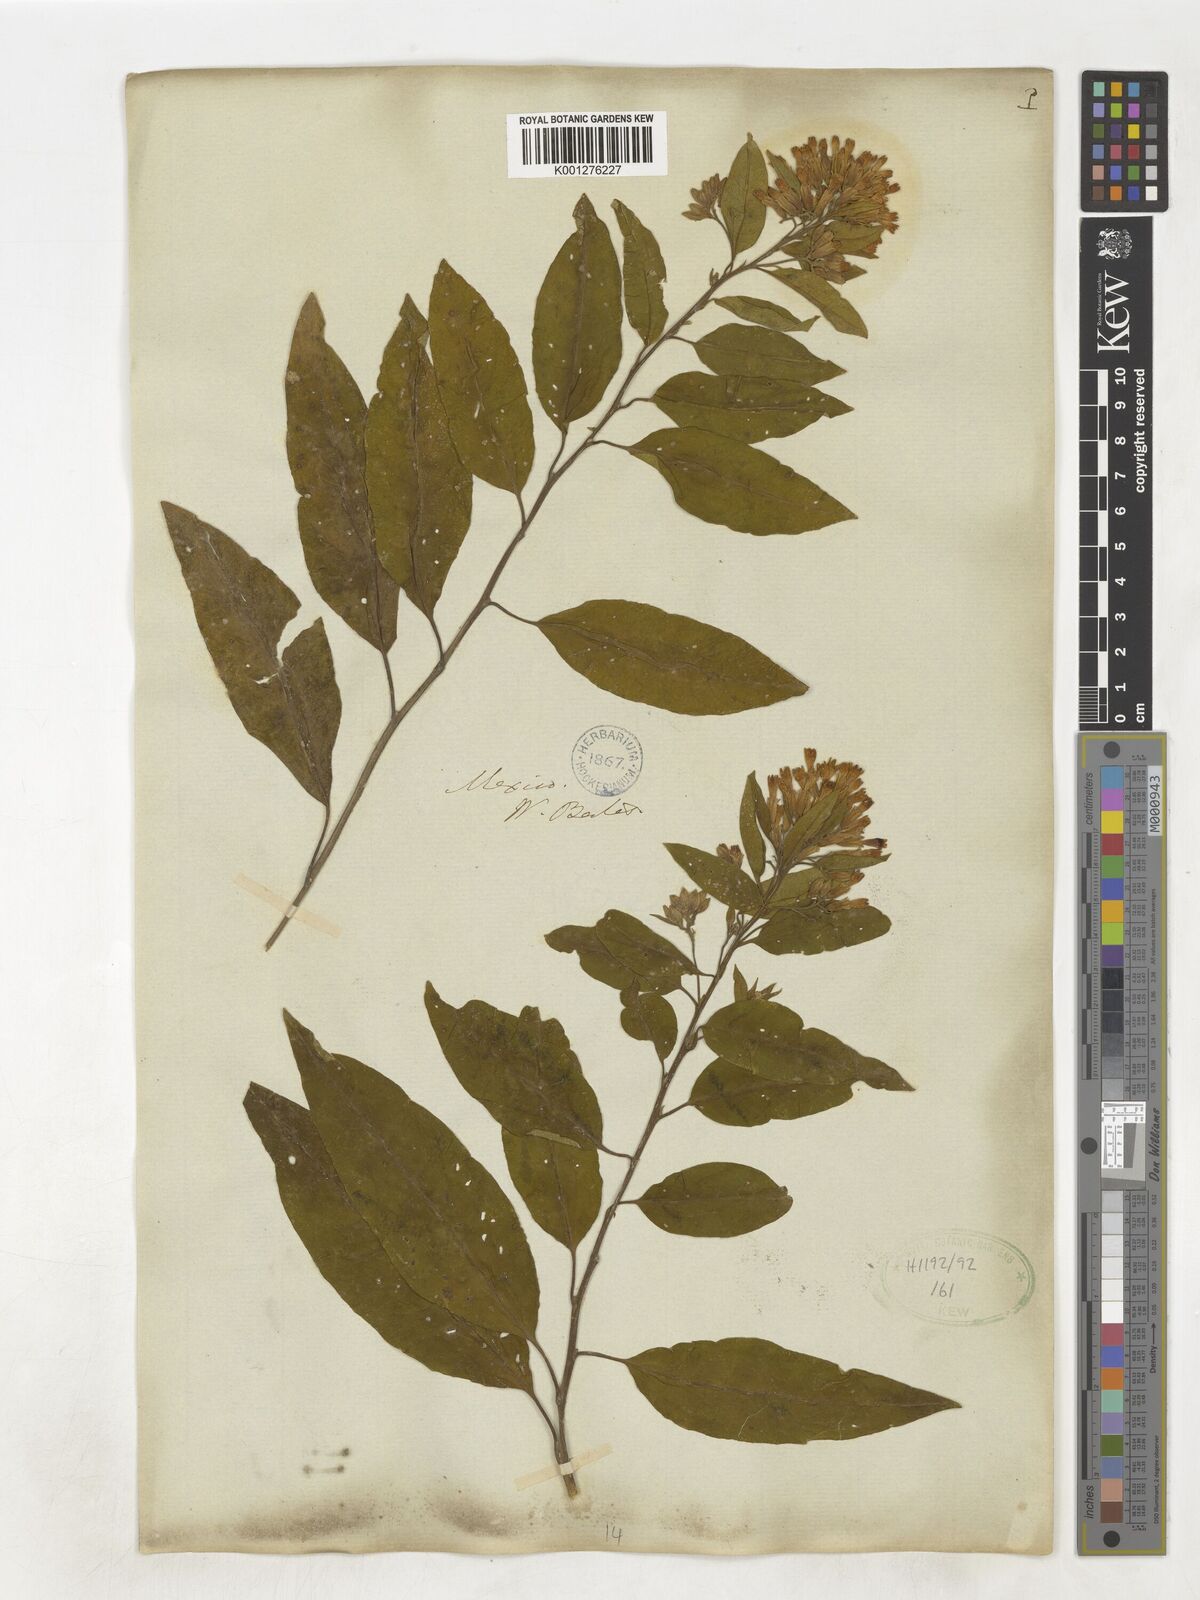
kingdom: Plantae
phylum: Tracheophyta
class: Magnoliopsida
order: Solanales
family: Solanaceae
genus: Cestrum
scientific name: Cestrum
